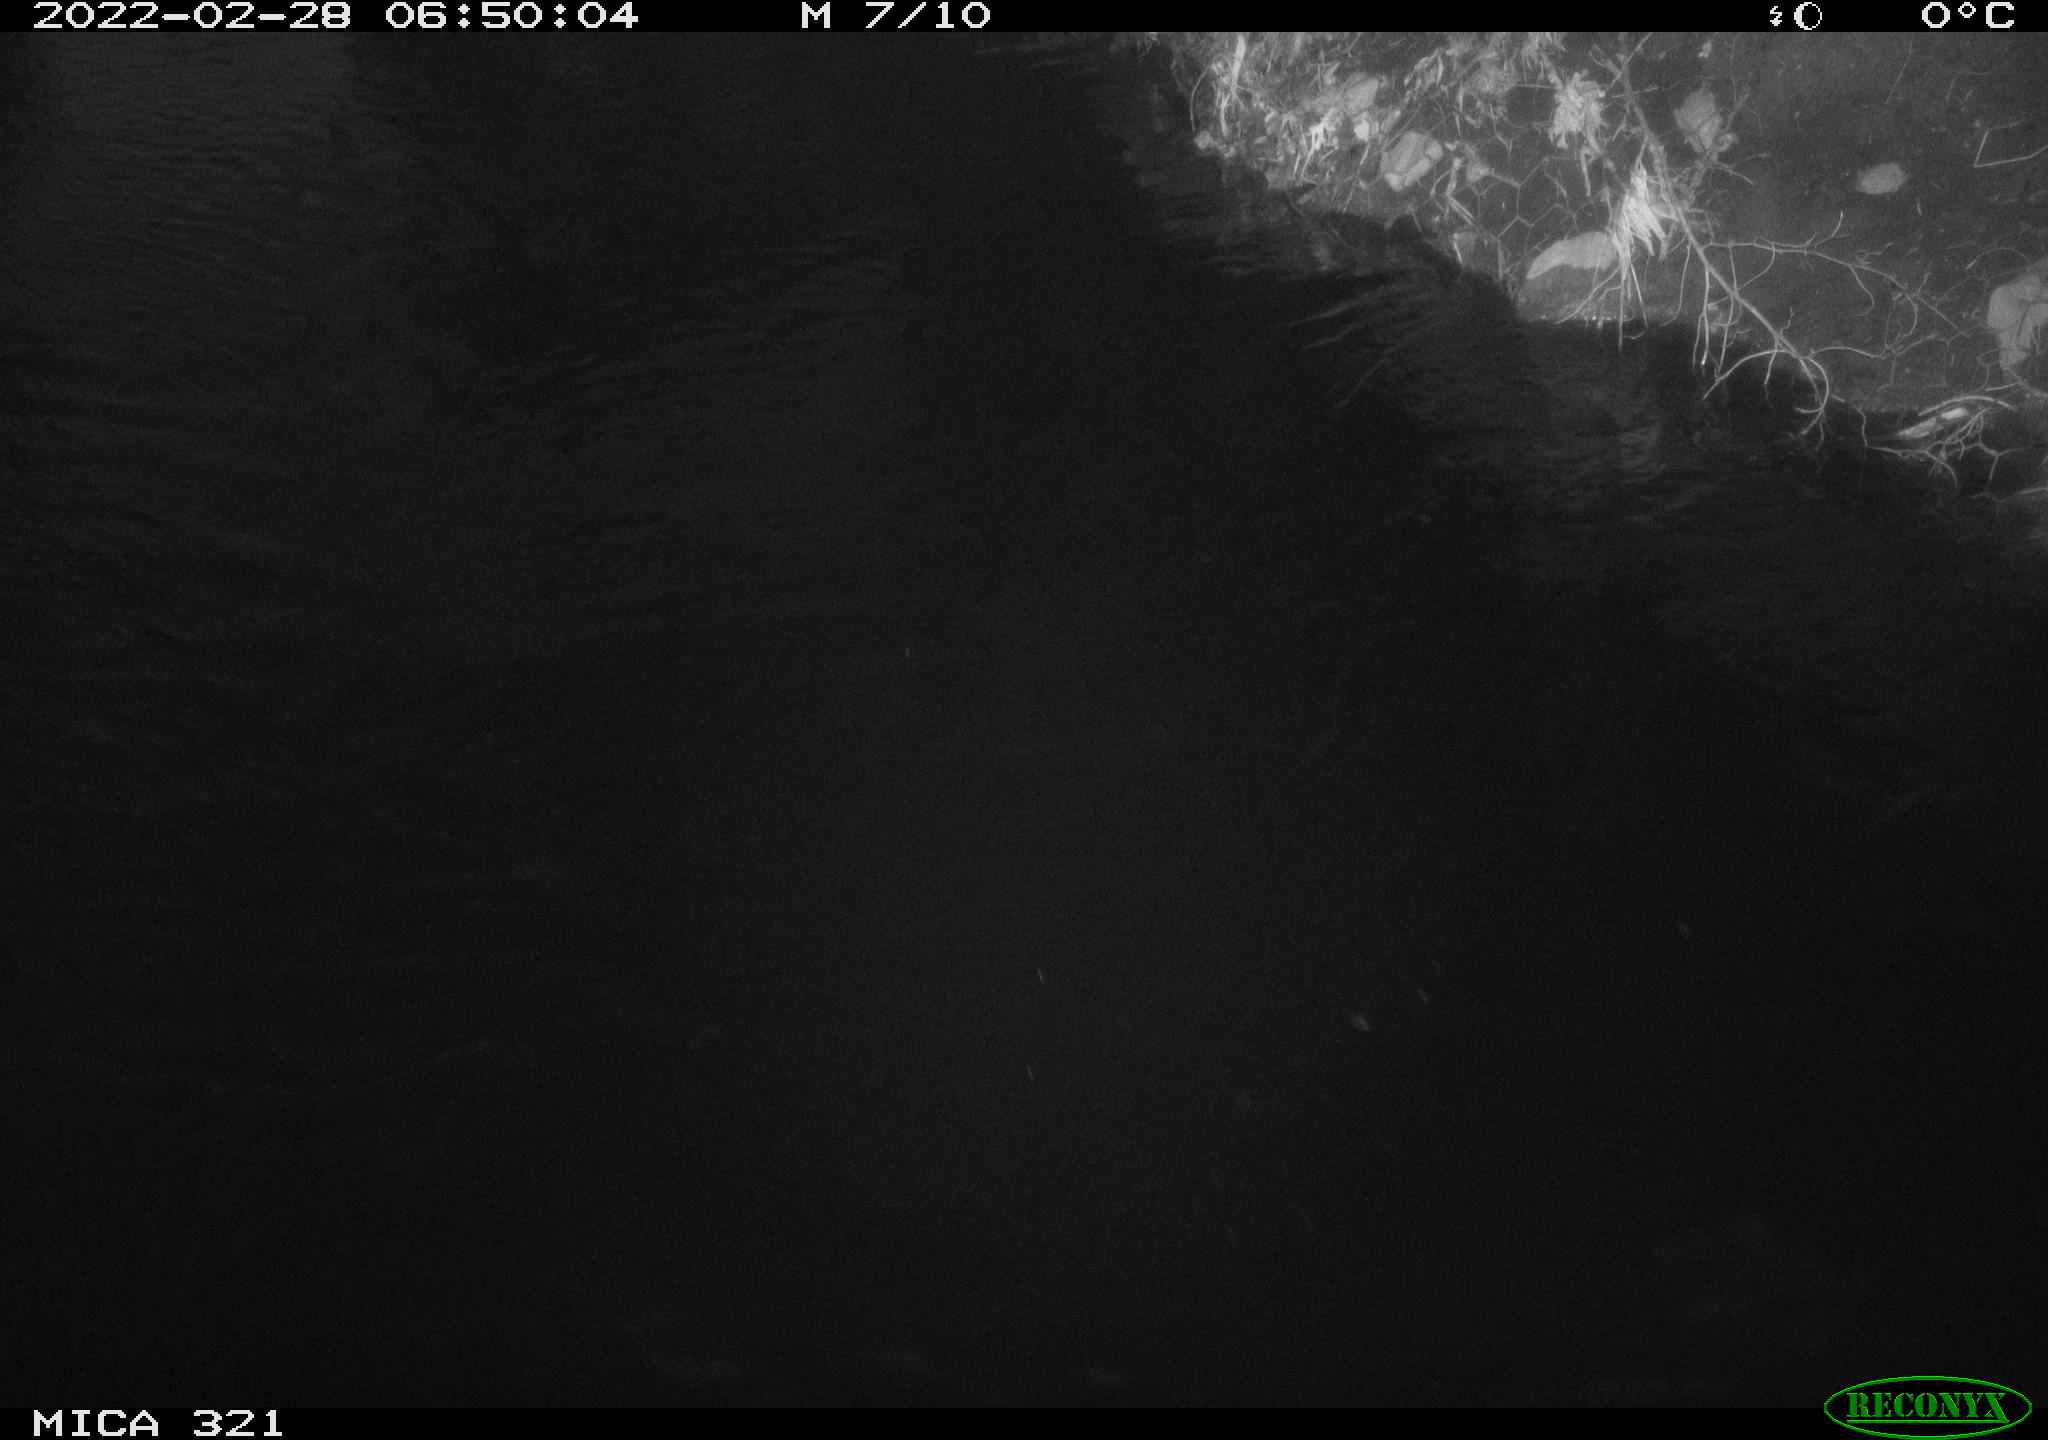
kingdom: Animalia
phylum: Chordata
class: Aves
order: Anseriformes
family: Anatidae
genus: Anas
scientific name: Anas platyrhynchos
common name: Mallard
